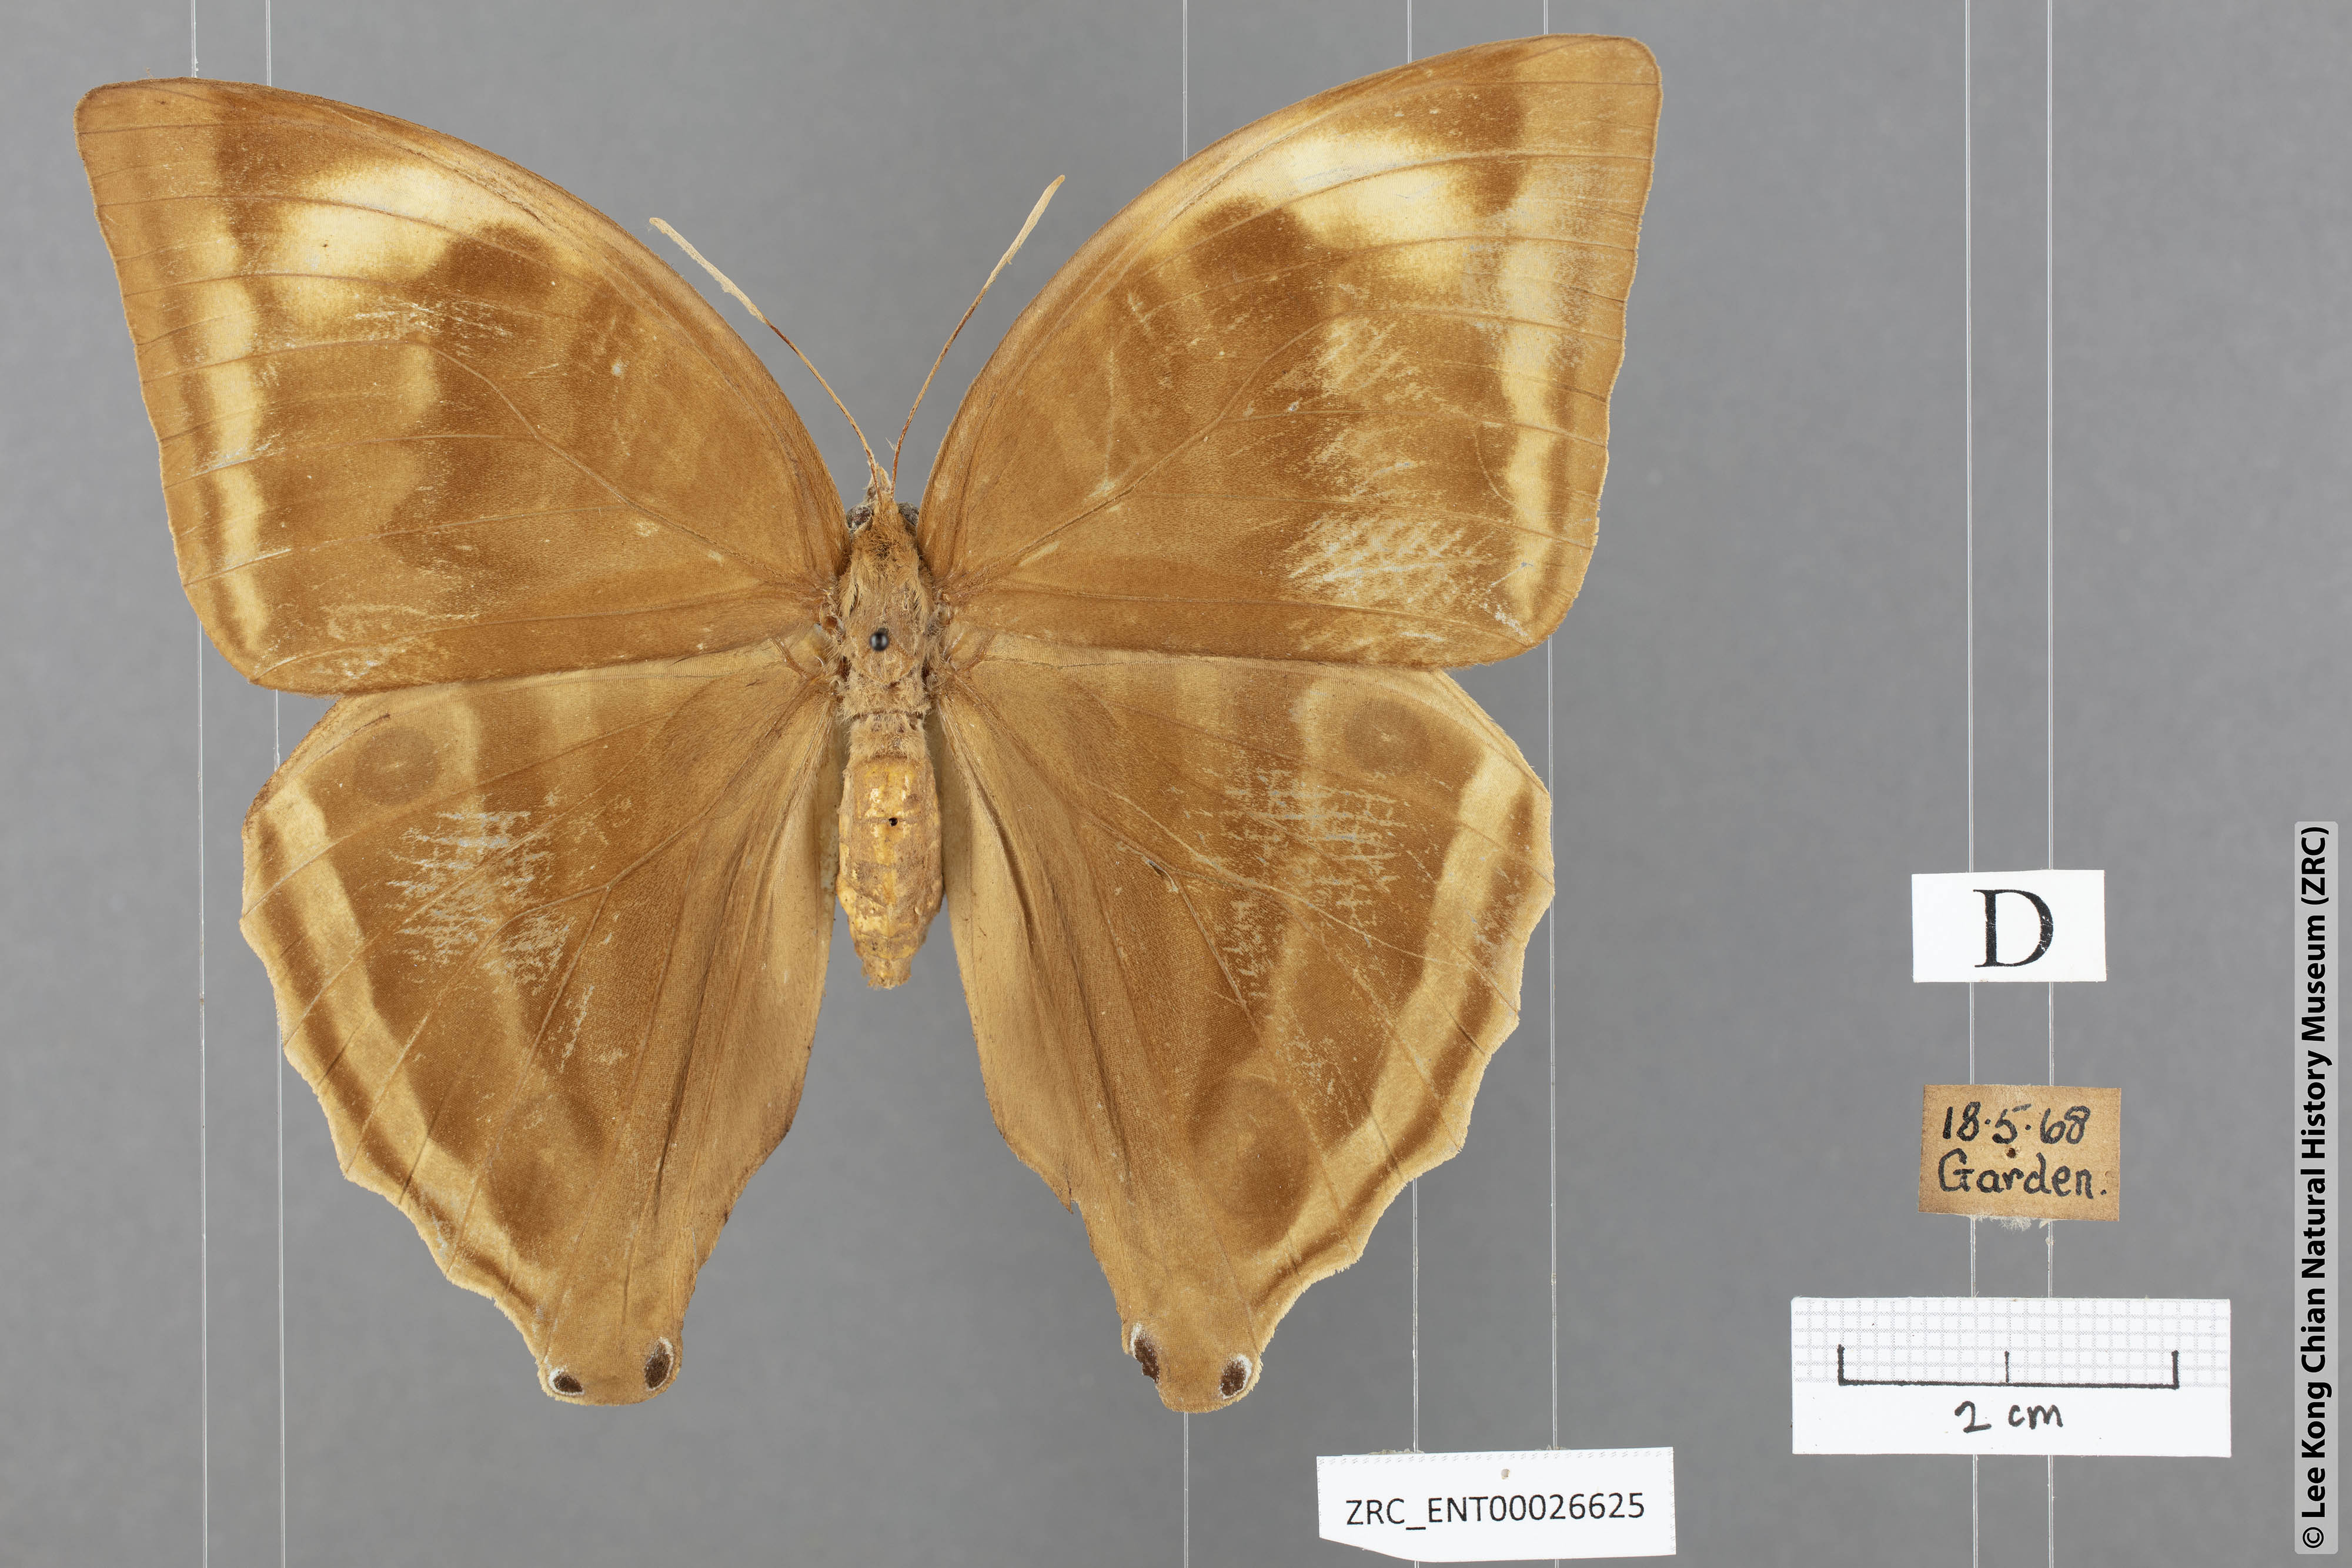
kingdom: Animalia
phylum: Arthropoda
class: Insecta
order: Lepidoptera
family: Nymphalidae
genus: Amathusia
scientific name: Amathusia phidippus
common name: Palm king
